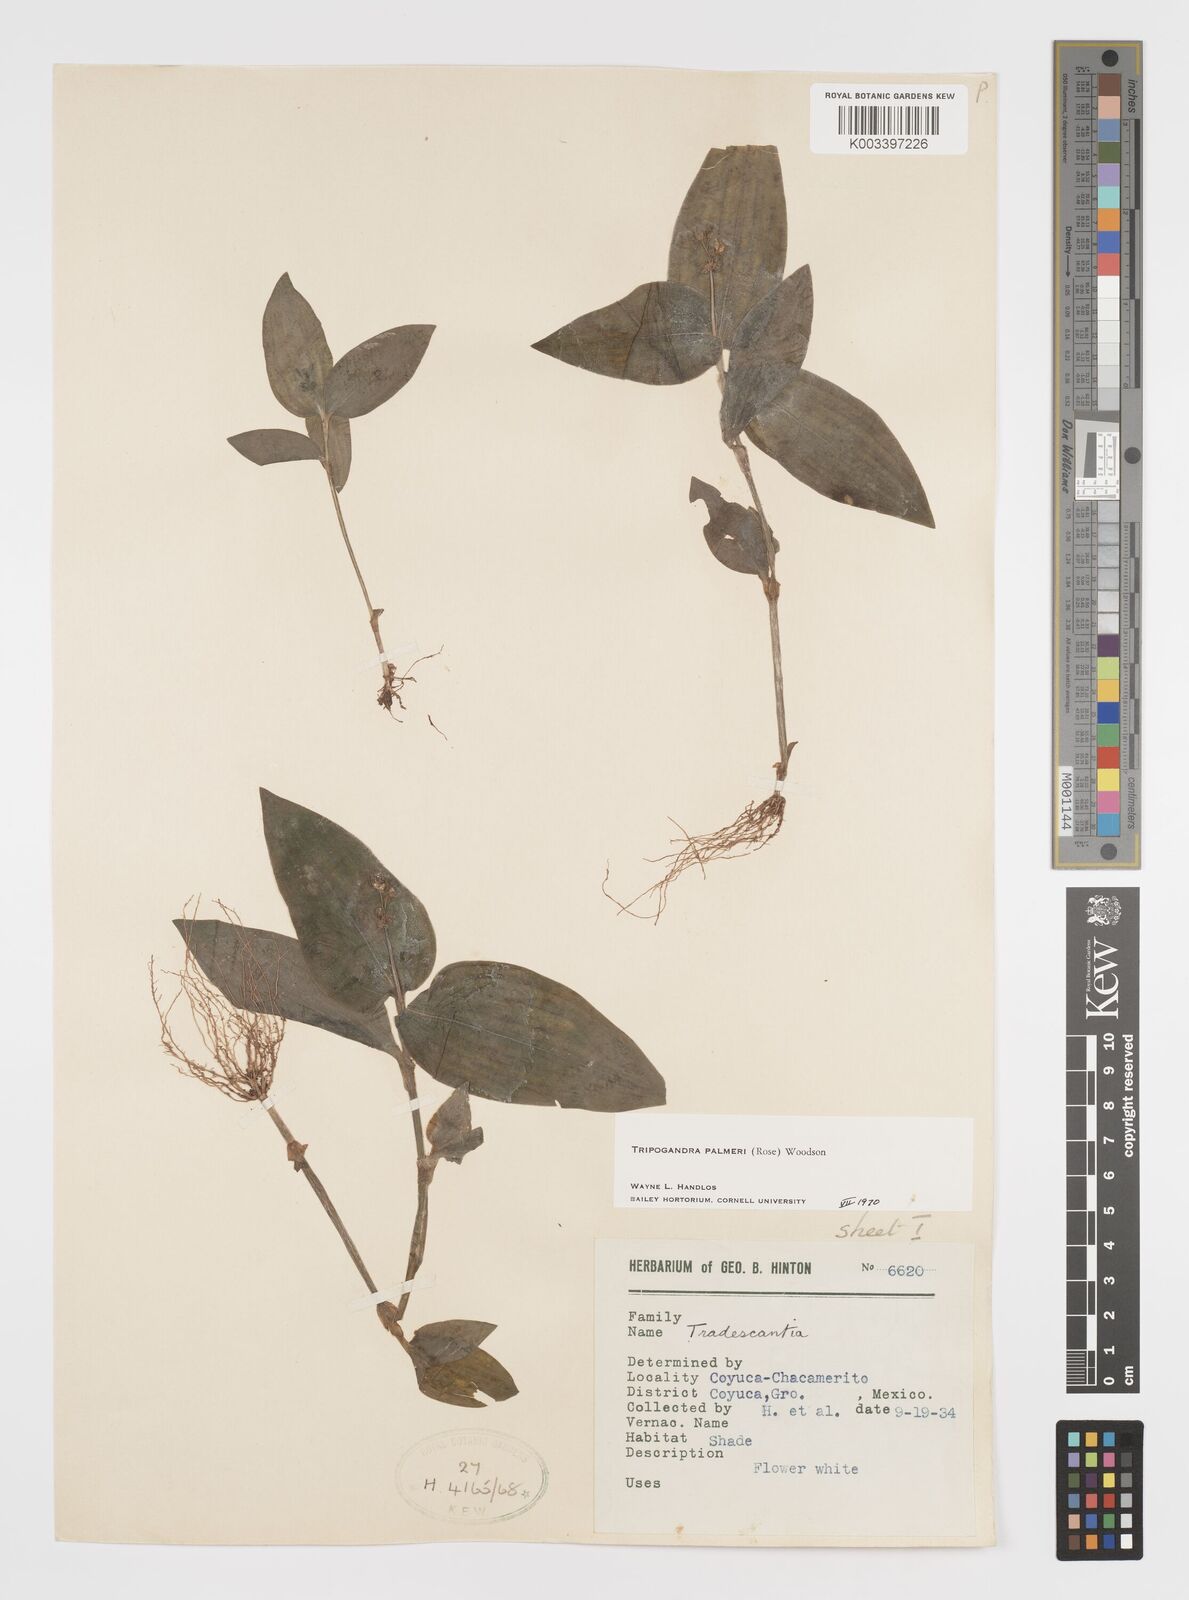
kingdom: Plantae
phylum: Tracheophyta
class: Liliopsida
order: Commelinales
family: Commelinaceae
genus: Callisia
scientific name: Callisia palmeri
